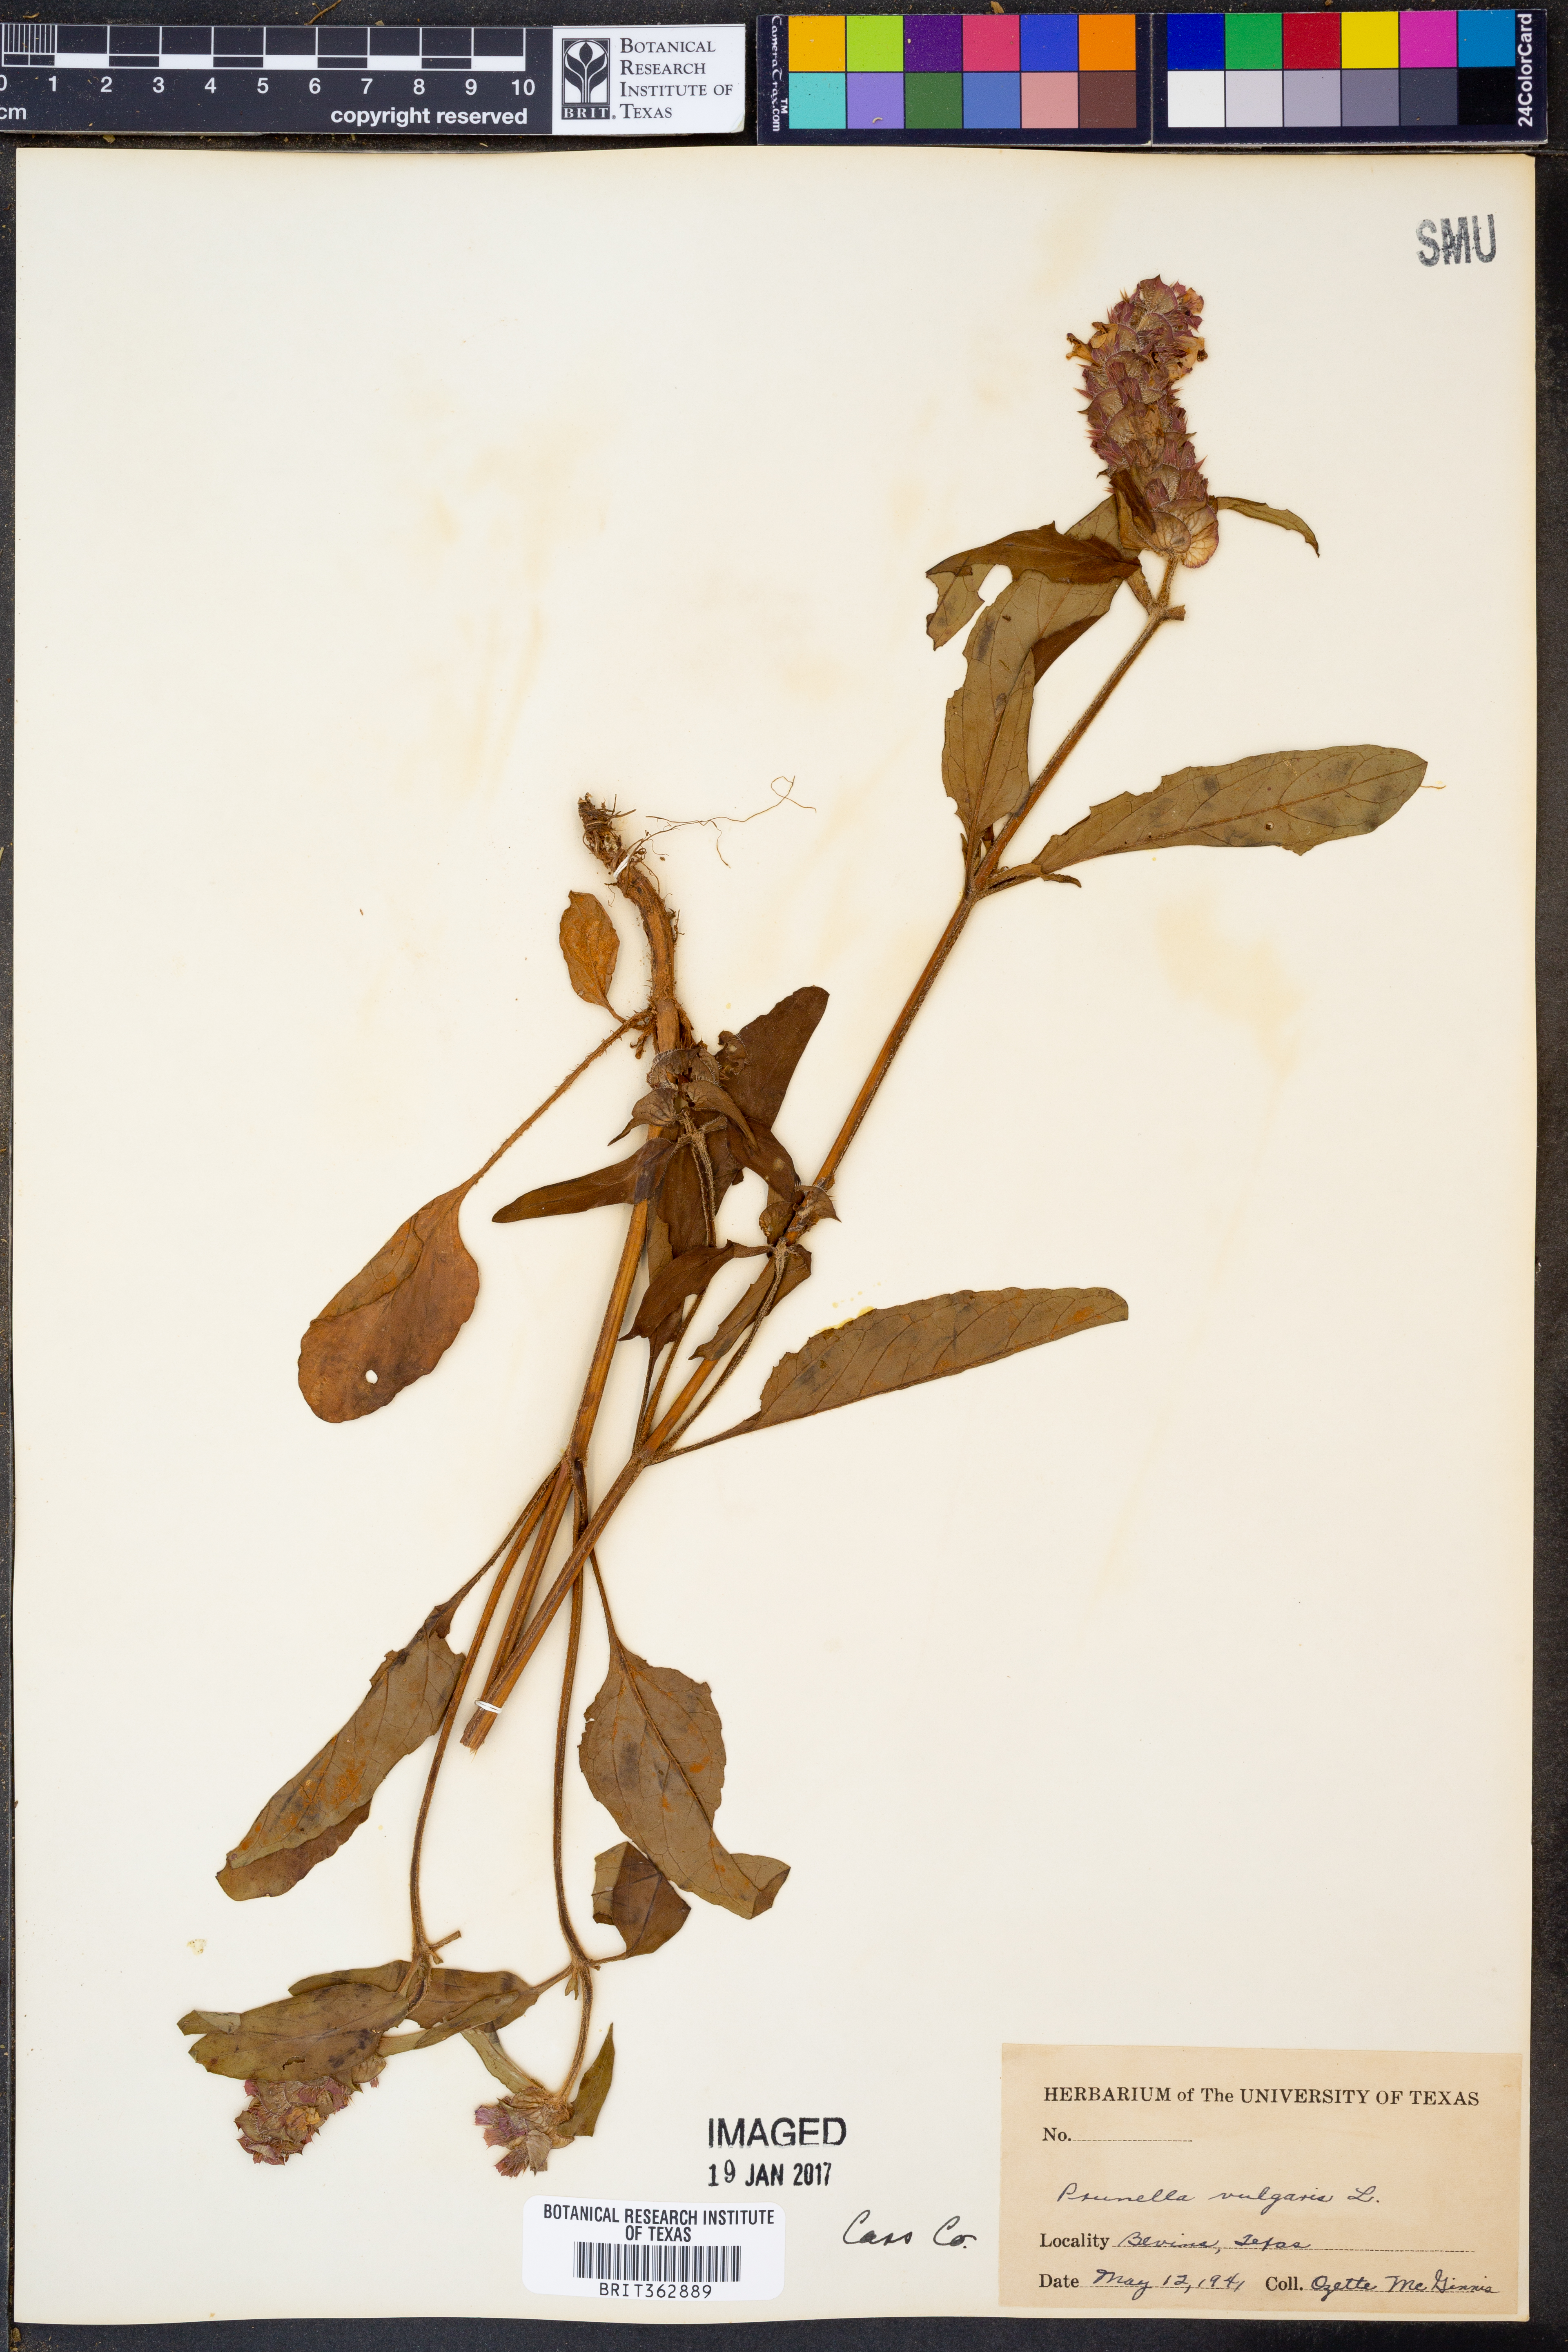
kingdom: Plantae
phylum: Tracheophyta
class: Magnoliopsida
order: Lamiales
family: Lamiaceae
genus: Prunella
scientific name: Prunella vulgaris
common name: Heal-all
